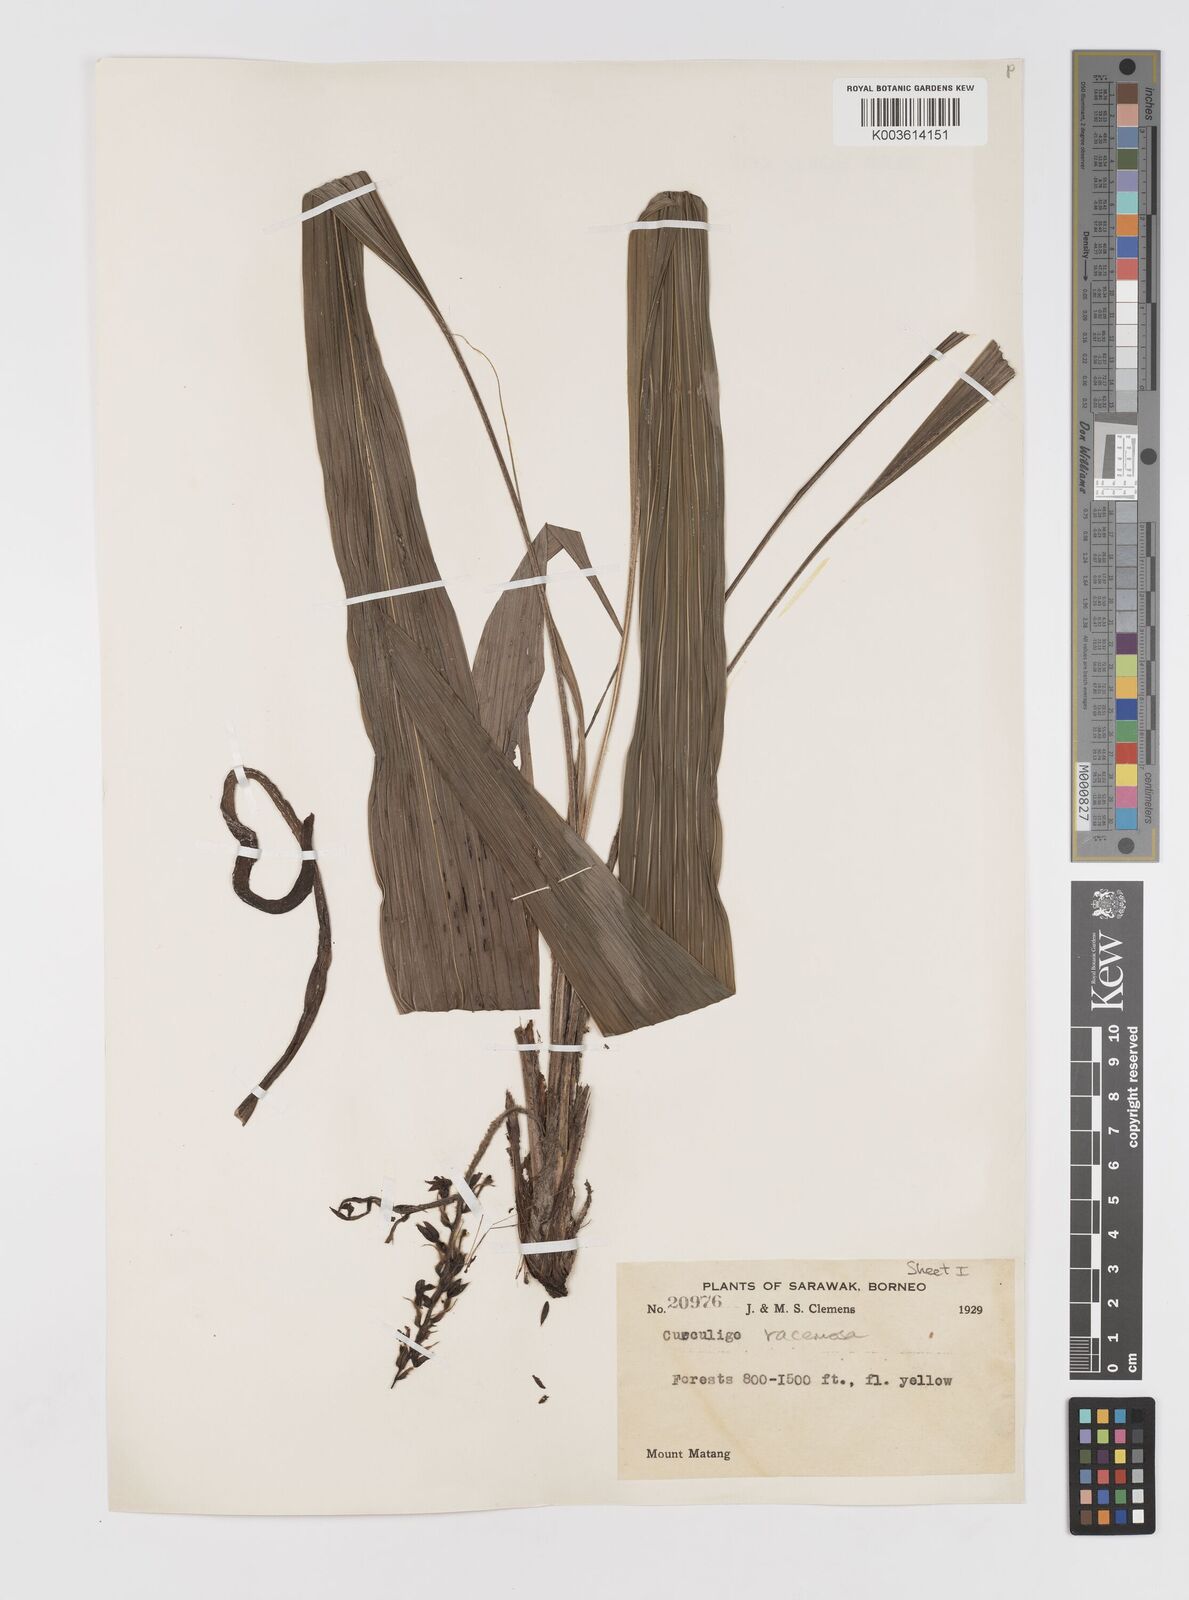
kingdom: Plantae
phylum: Tracheophyta
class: Liliopsida
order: Asparagales
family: Hypoxidaceae
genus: Curculigo
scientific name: Curculigo racemosa
